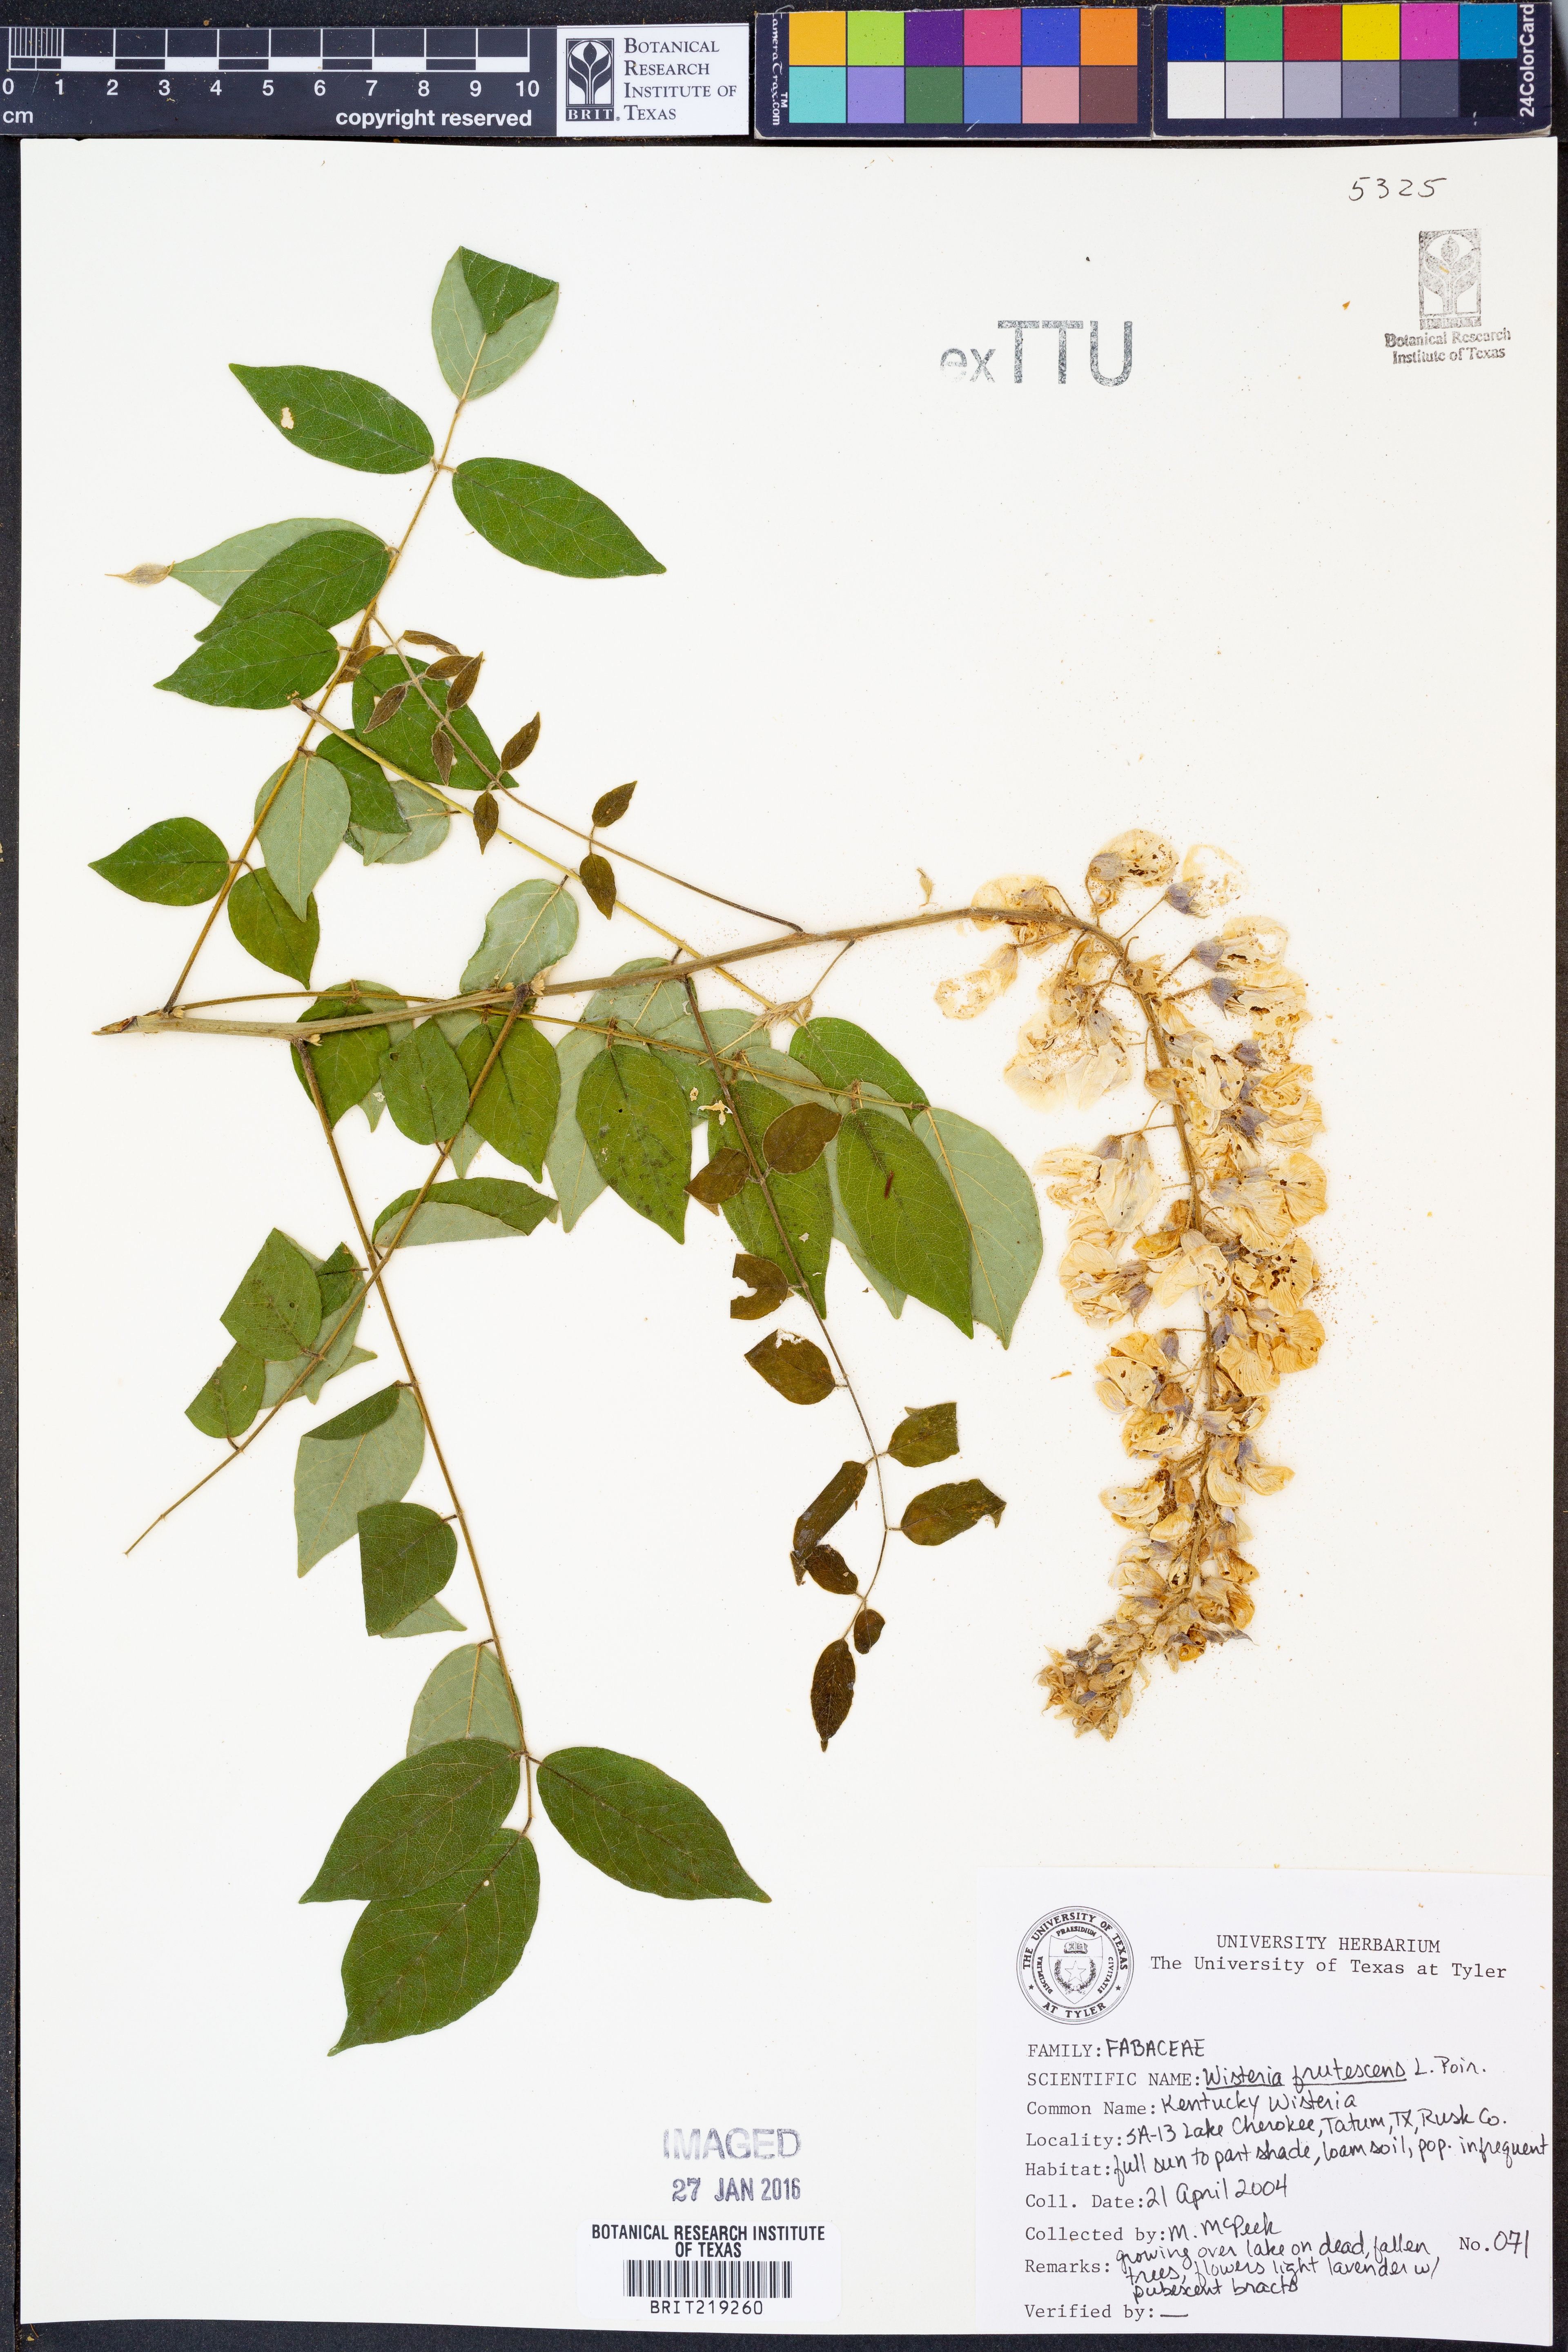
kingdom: Plantae
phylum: Tracheophyta
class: Magnoliopsida
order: Fabales
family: Fabaceae
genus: Wisteria
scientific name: Wisteria frutescens
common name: American wisteria
